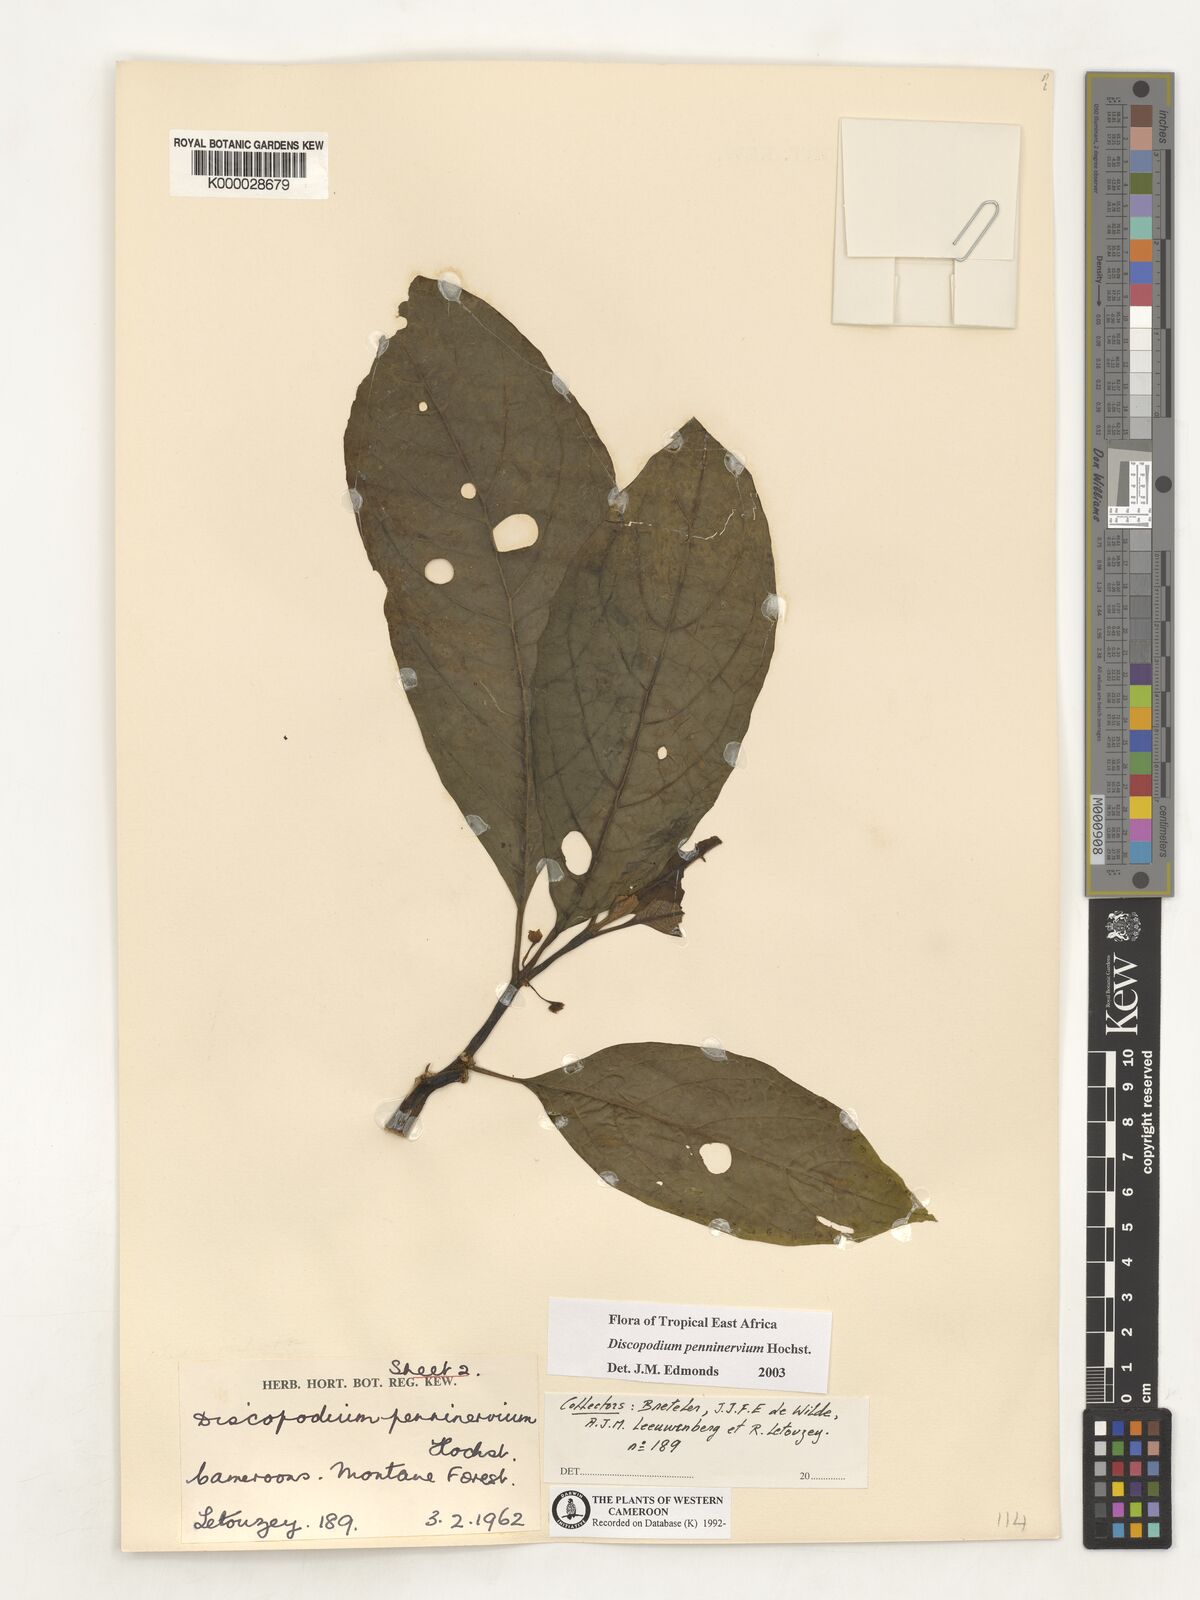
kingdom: Plantae
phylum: Tracheophyta
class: Magnoliopsida
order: Solanales
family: Solanaceae
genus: Discopodium
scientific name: Discopodium penninervium
